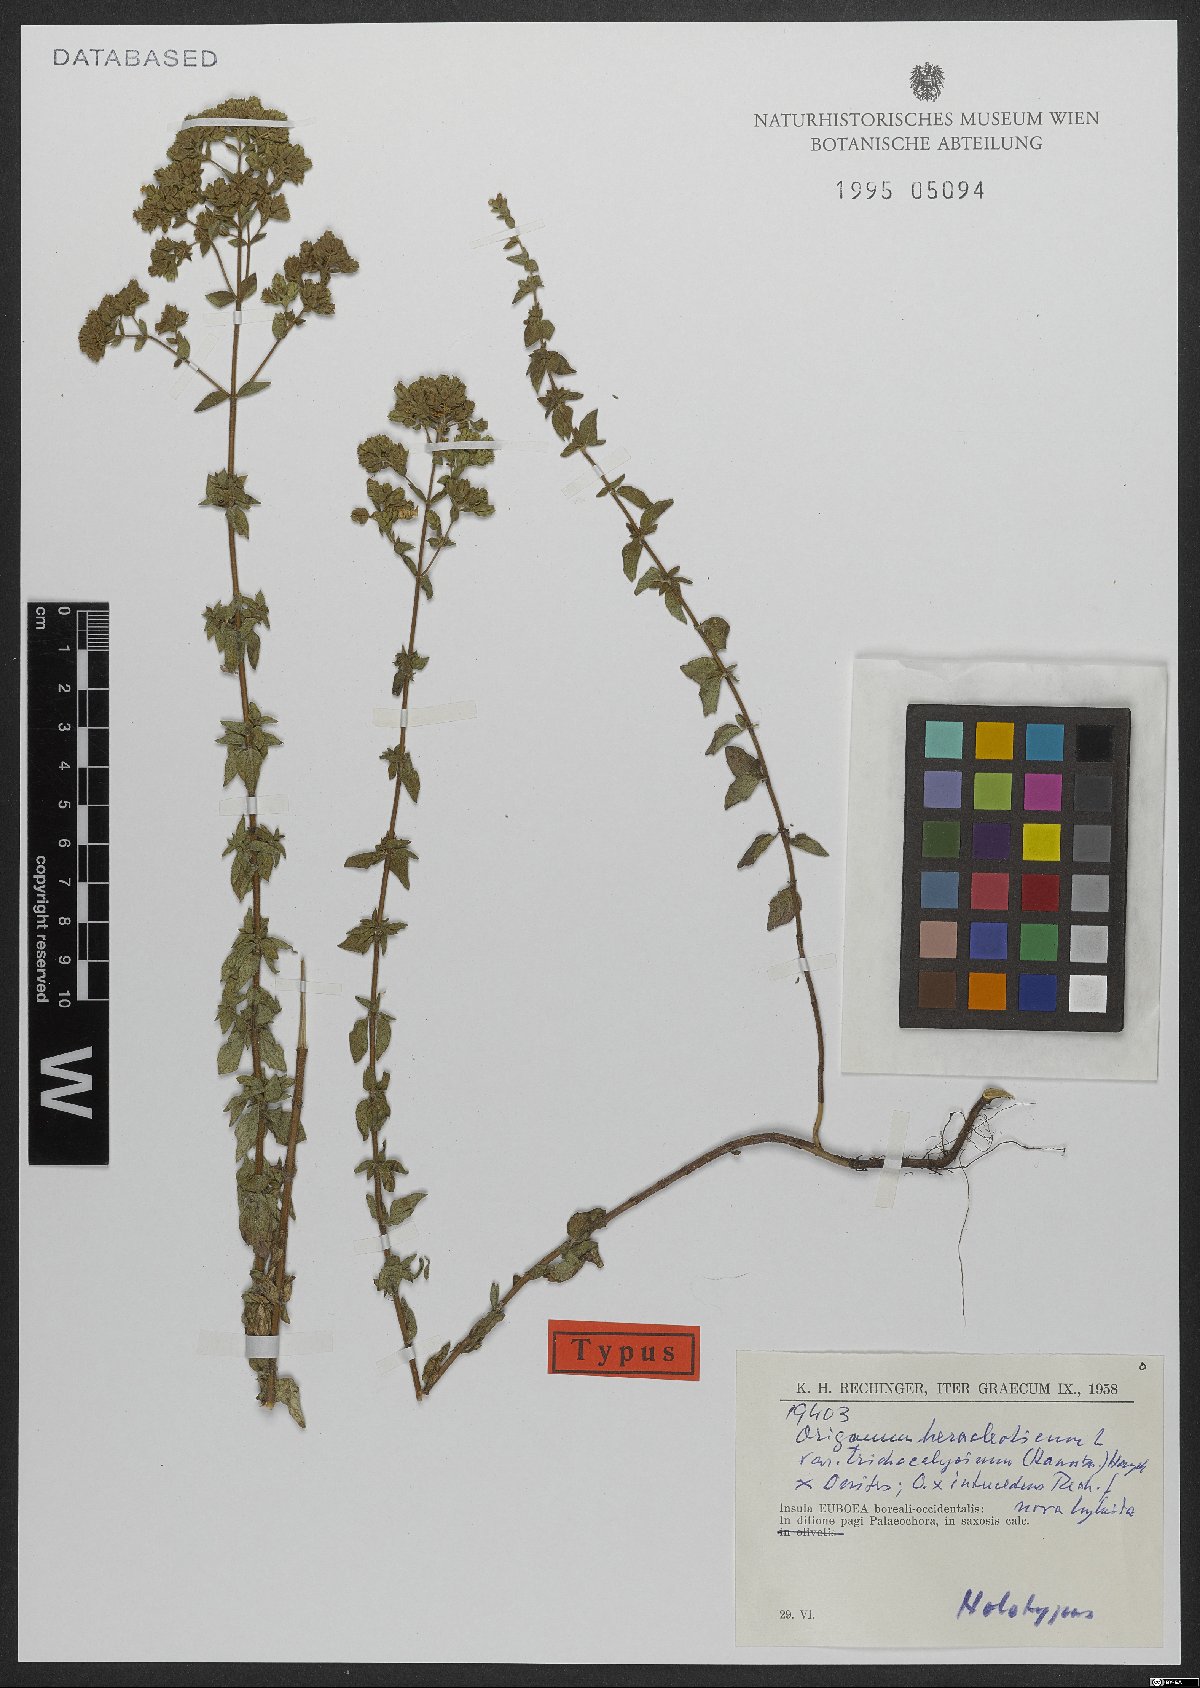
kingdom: Plantae
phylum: Tracheophyta
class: Magnoliopsida
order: Lamiales
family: Lamiaceae
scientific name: Lamiaceae
